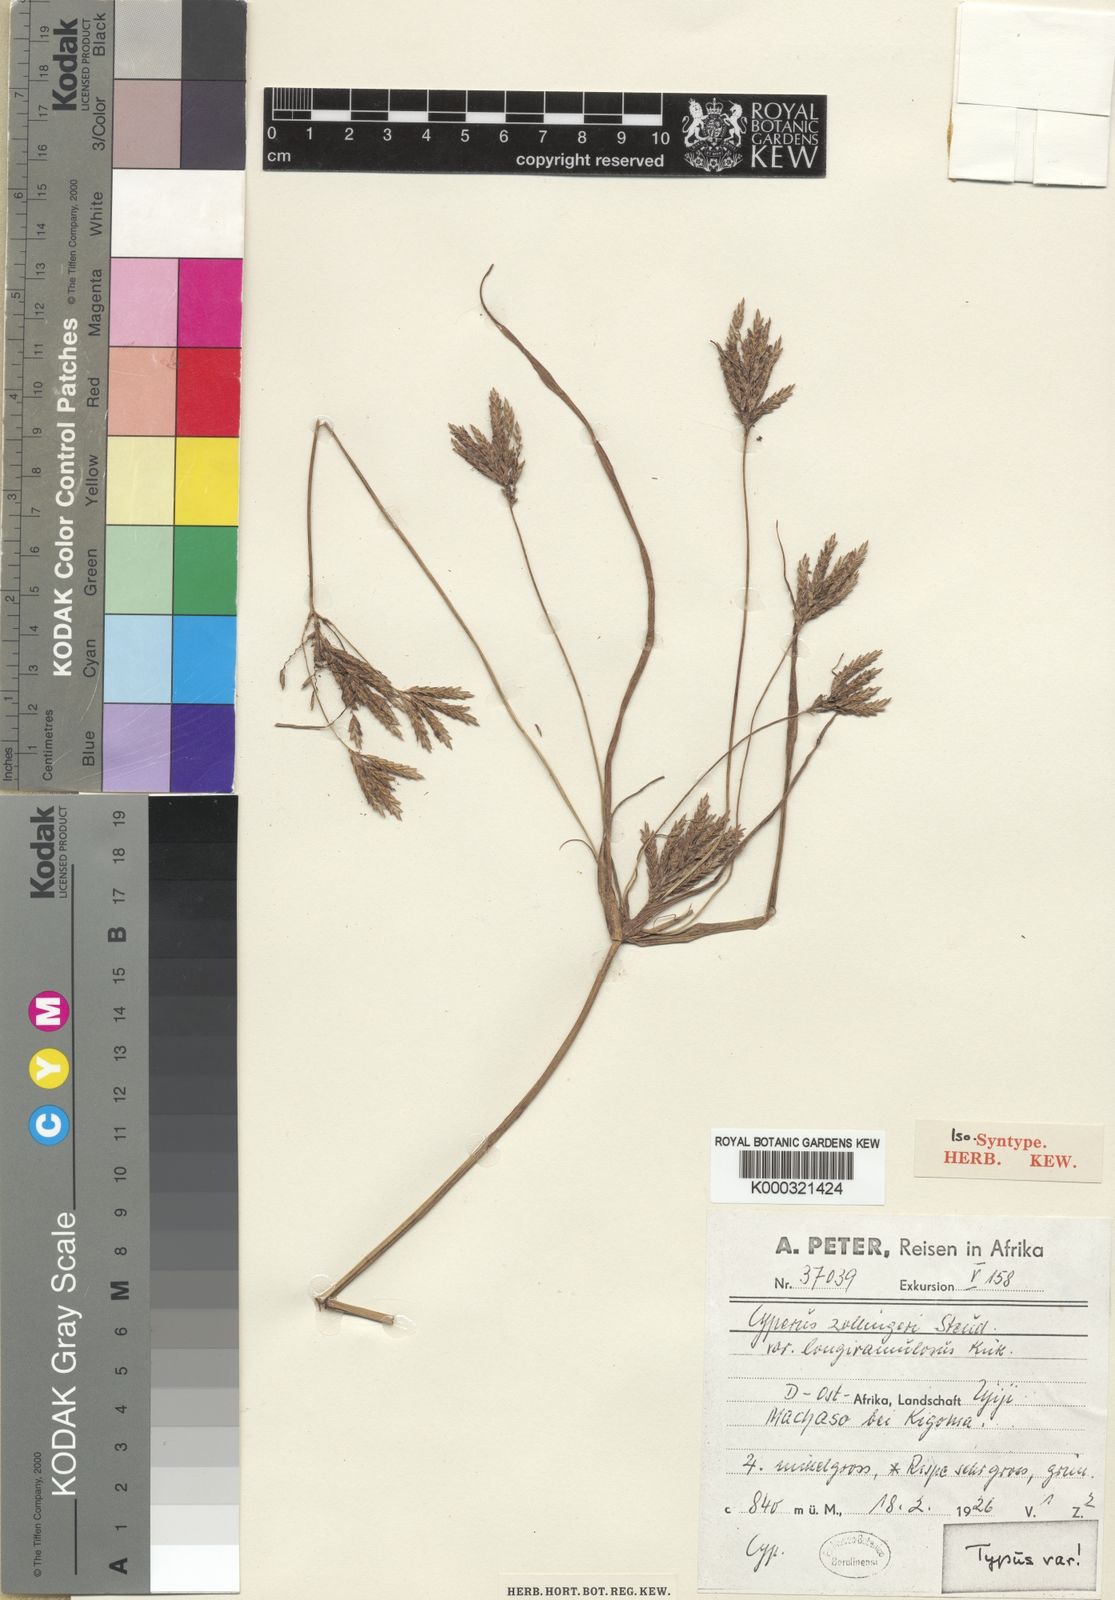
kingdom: Plantae
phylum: Tracheophyta
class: Liliopsida
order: Poales
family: Cyperaceae
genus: Cyperus
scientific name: Cyperus tenuiculmis
